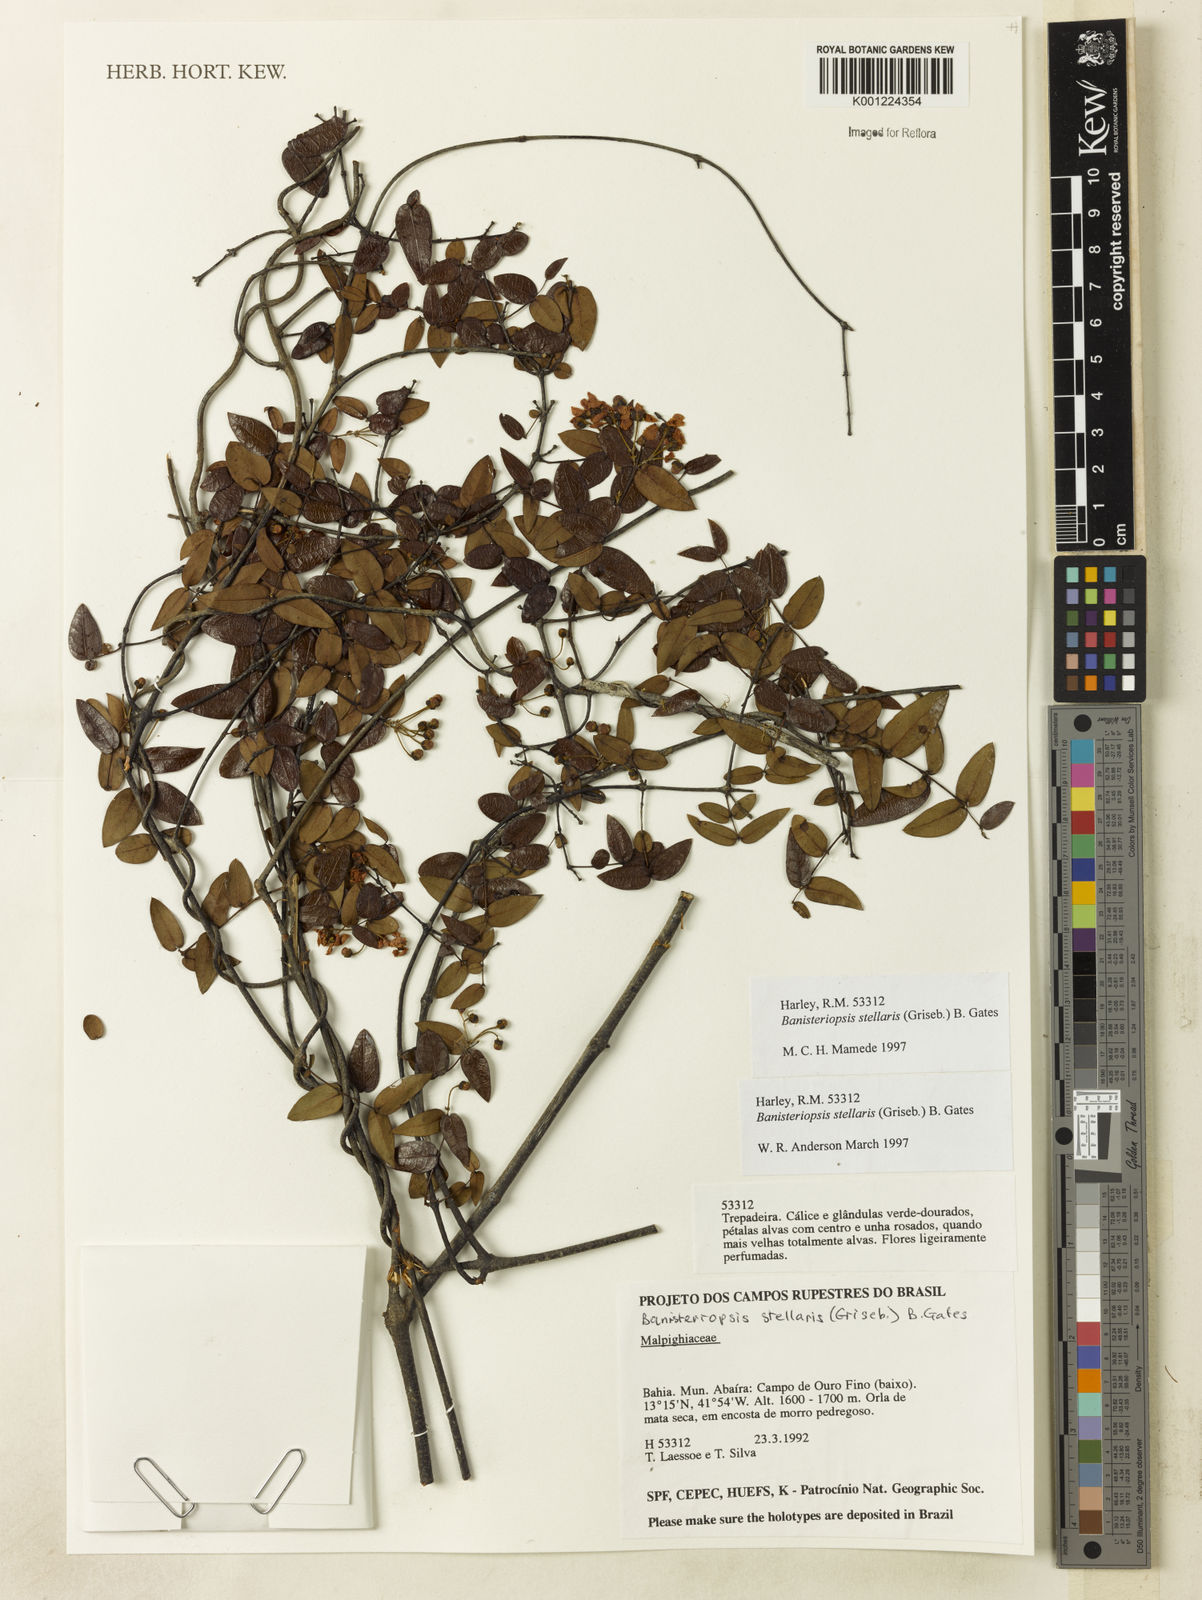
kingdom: Plantae
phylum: Tracheophyta
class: Magnoliopsida
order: Malpighiales
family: Malpighiaceae
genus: Banisteriopsis
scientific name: Banisteriopsis stellaris
